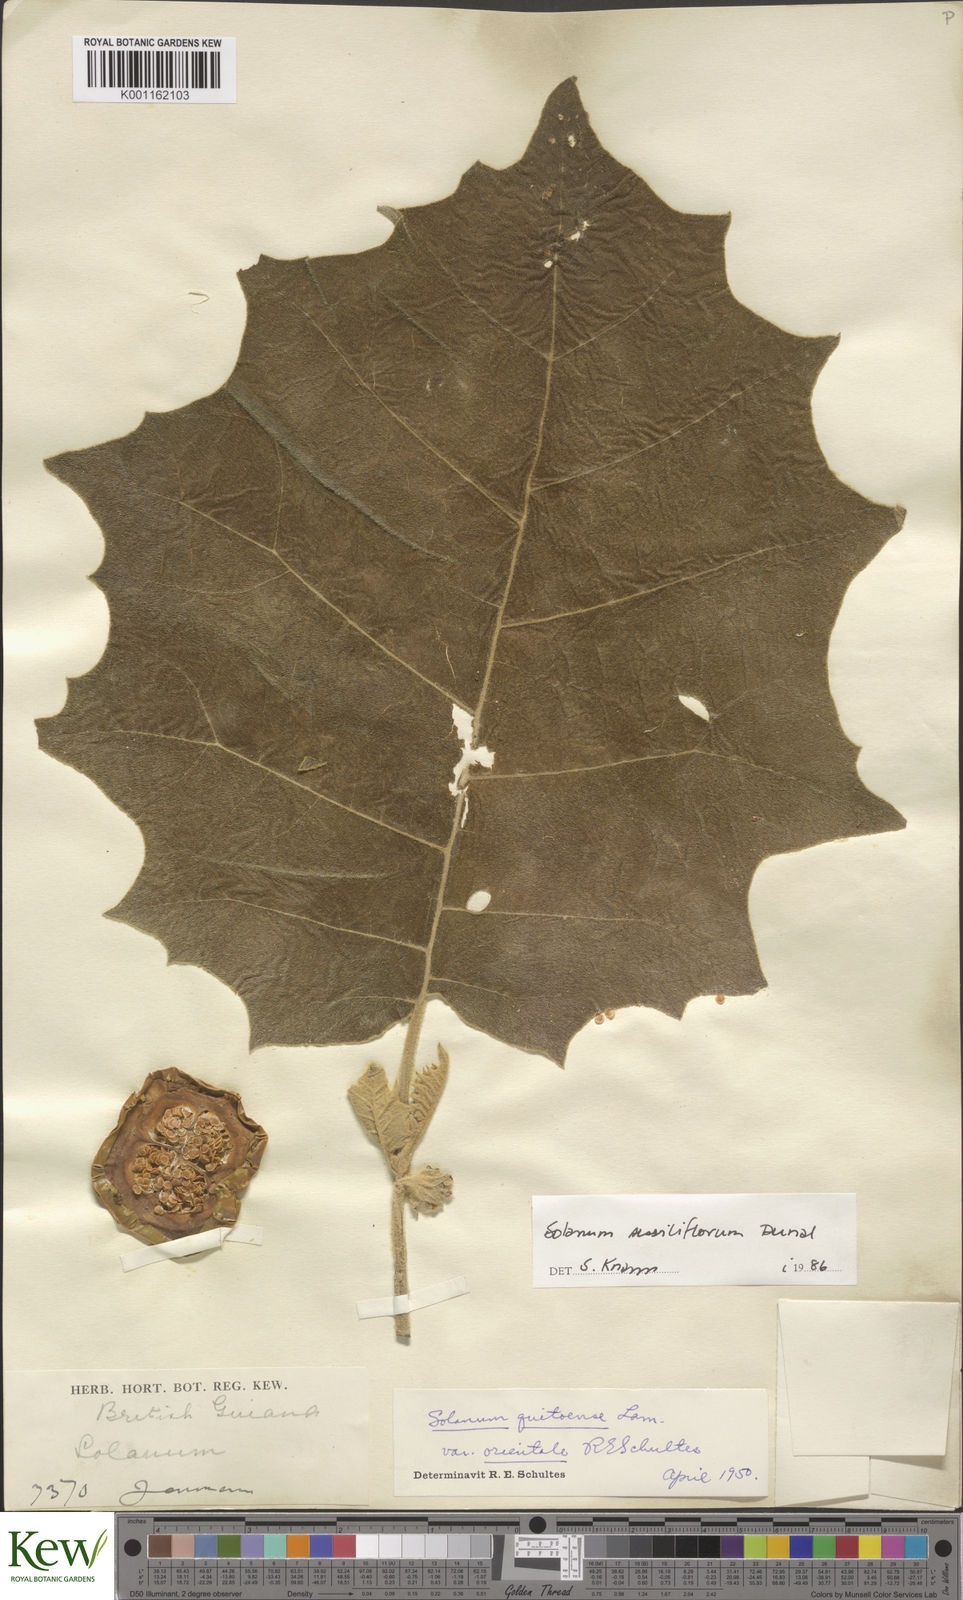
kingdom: Plantae
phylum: Tracheophyta
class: Magnoliopsida
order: Solanales
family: Solanaceae
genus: Solanum
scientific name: Solanum sessiliflorum
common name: Orinoco-apple
